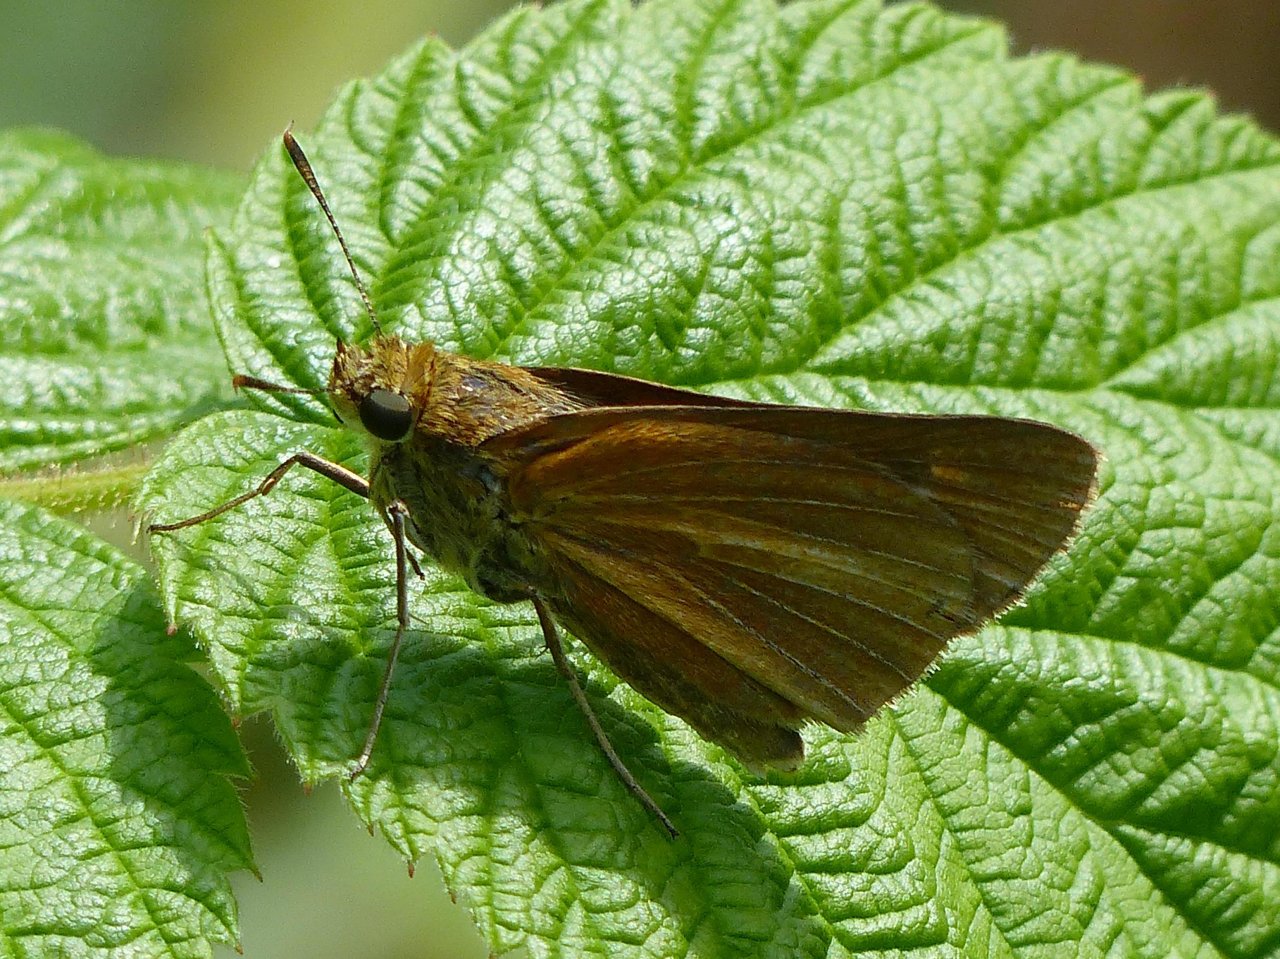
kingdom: Animalia
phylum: Arthropoda
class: Insecta
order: Lepidoptera
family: Hesperiidae
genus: Euphyes
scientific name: Euphyes dion
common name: Dion Skipper
